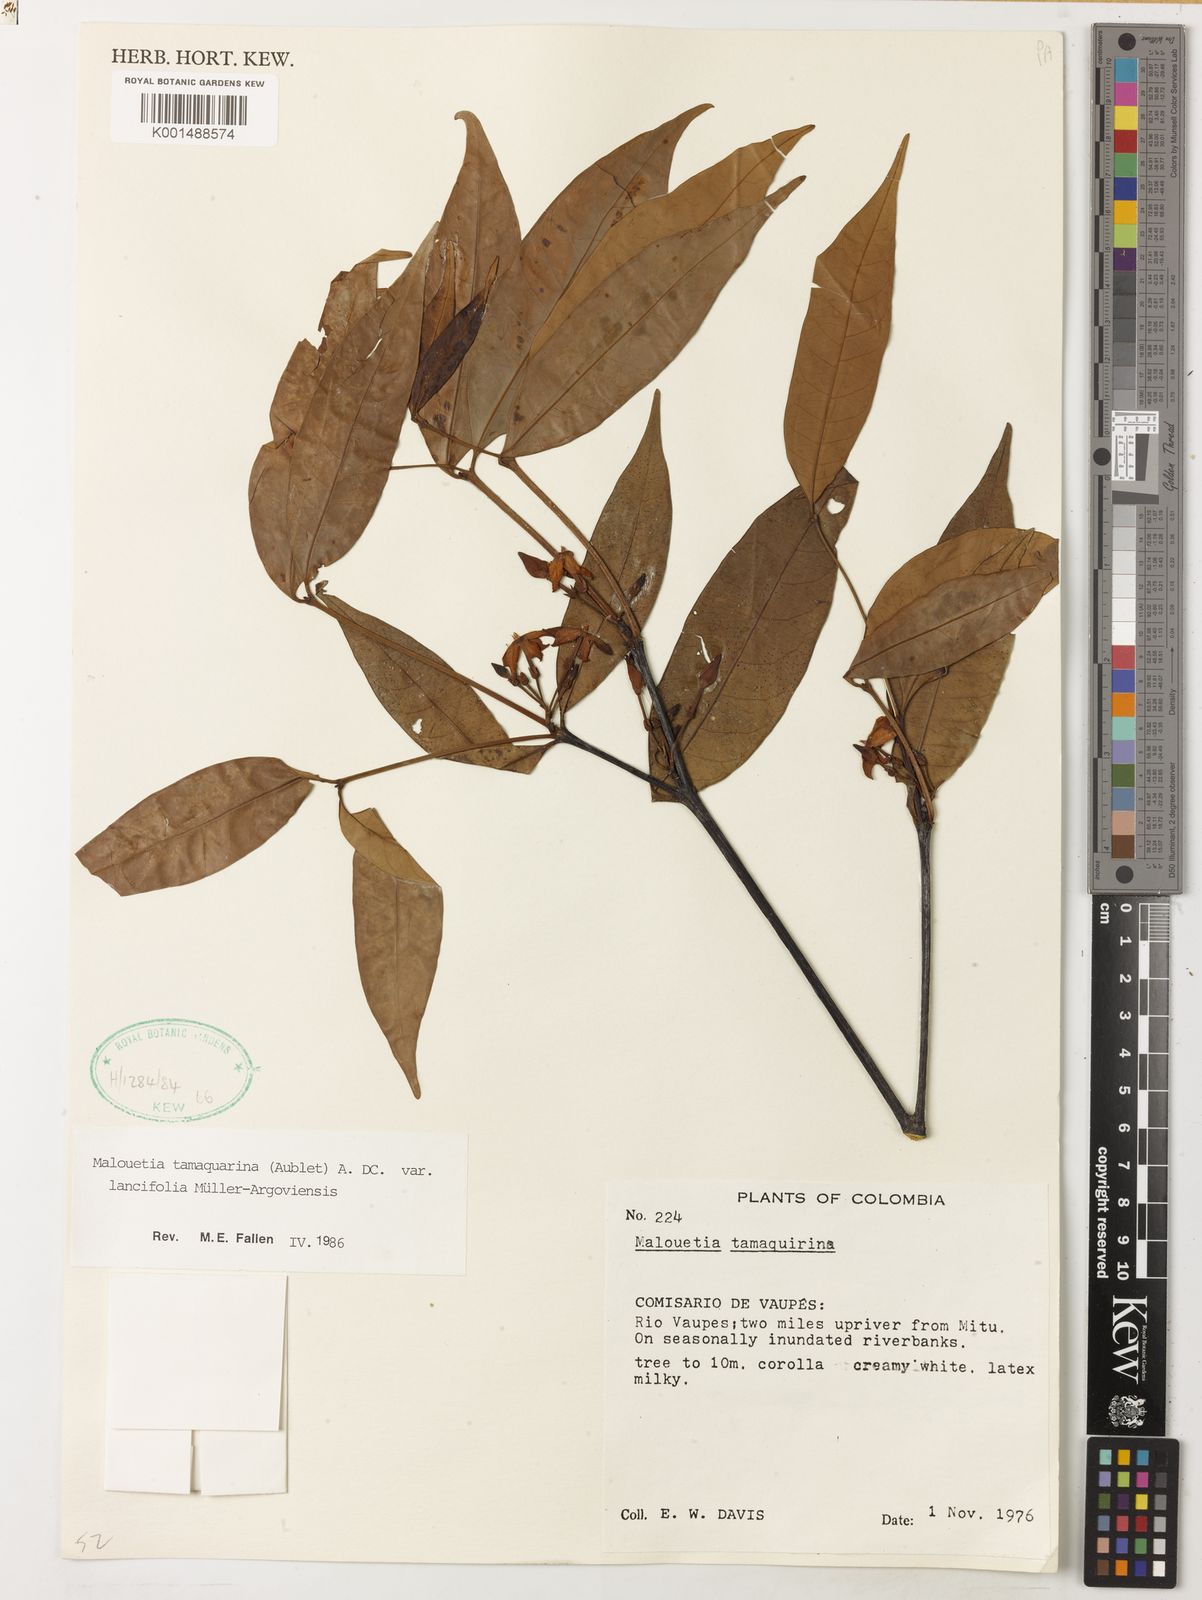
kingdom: Plantae
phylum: Tracheophyta
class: Magnoliopsida
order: Gentianales
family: Apocynaceae
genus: Malouetia
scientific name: Malouetia tamaquarina
